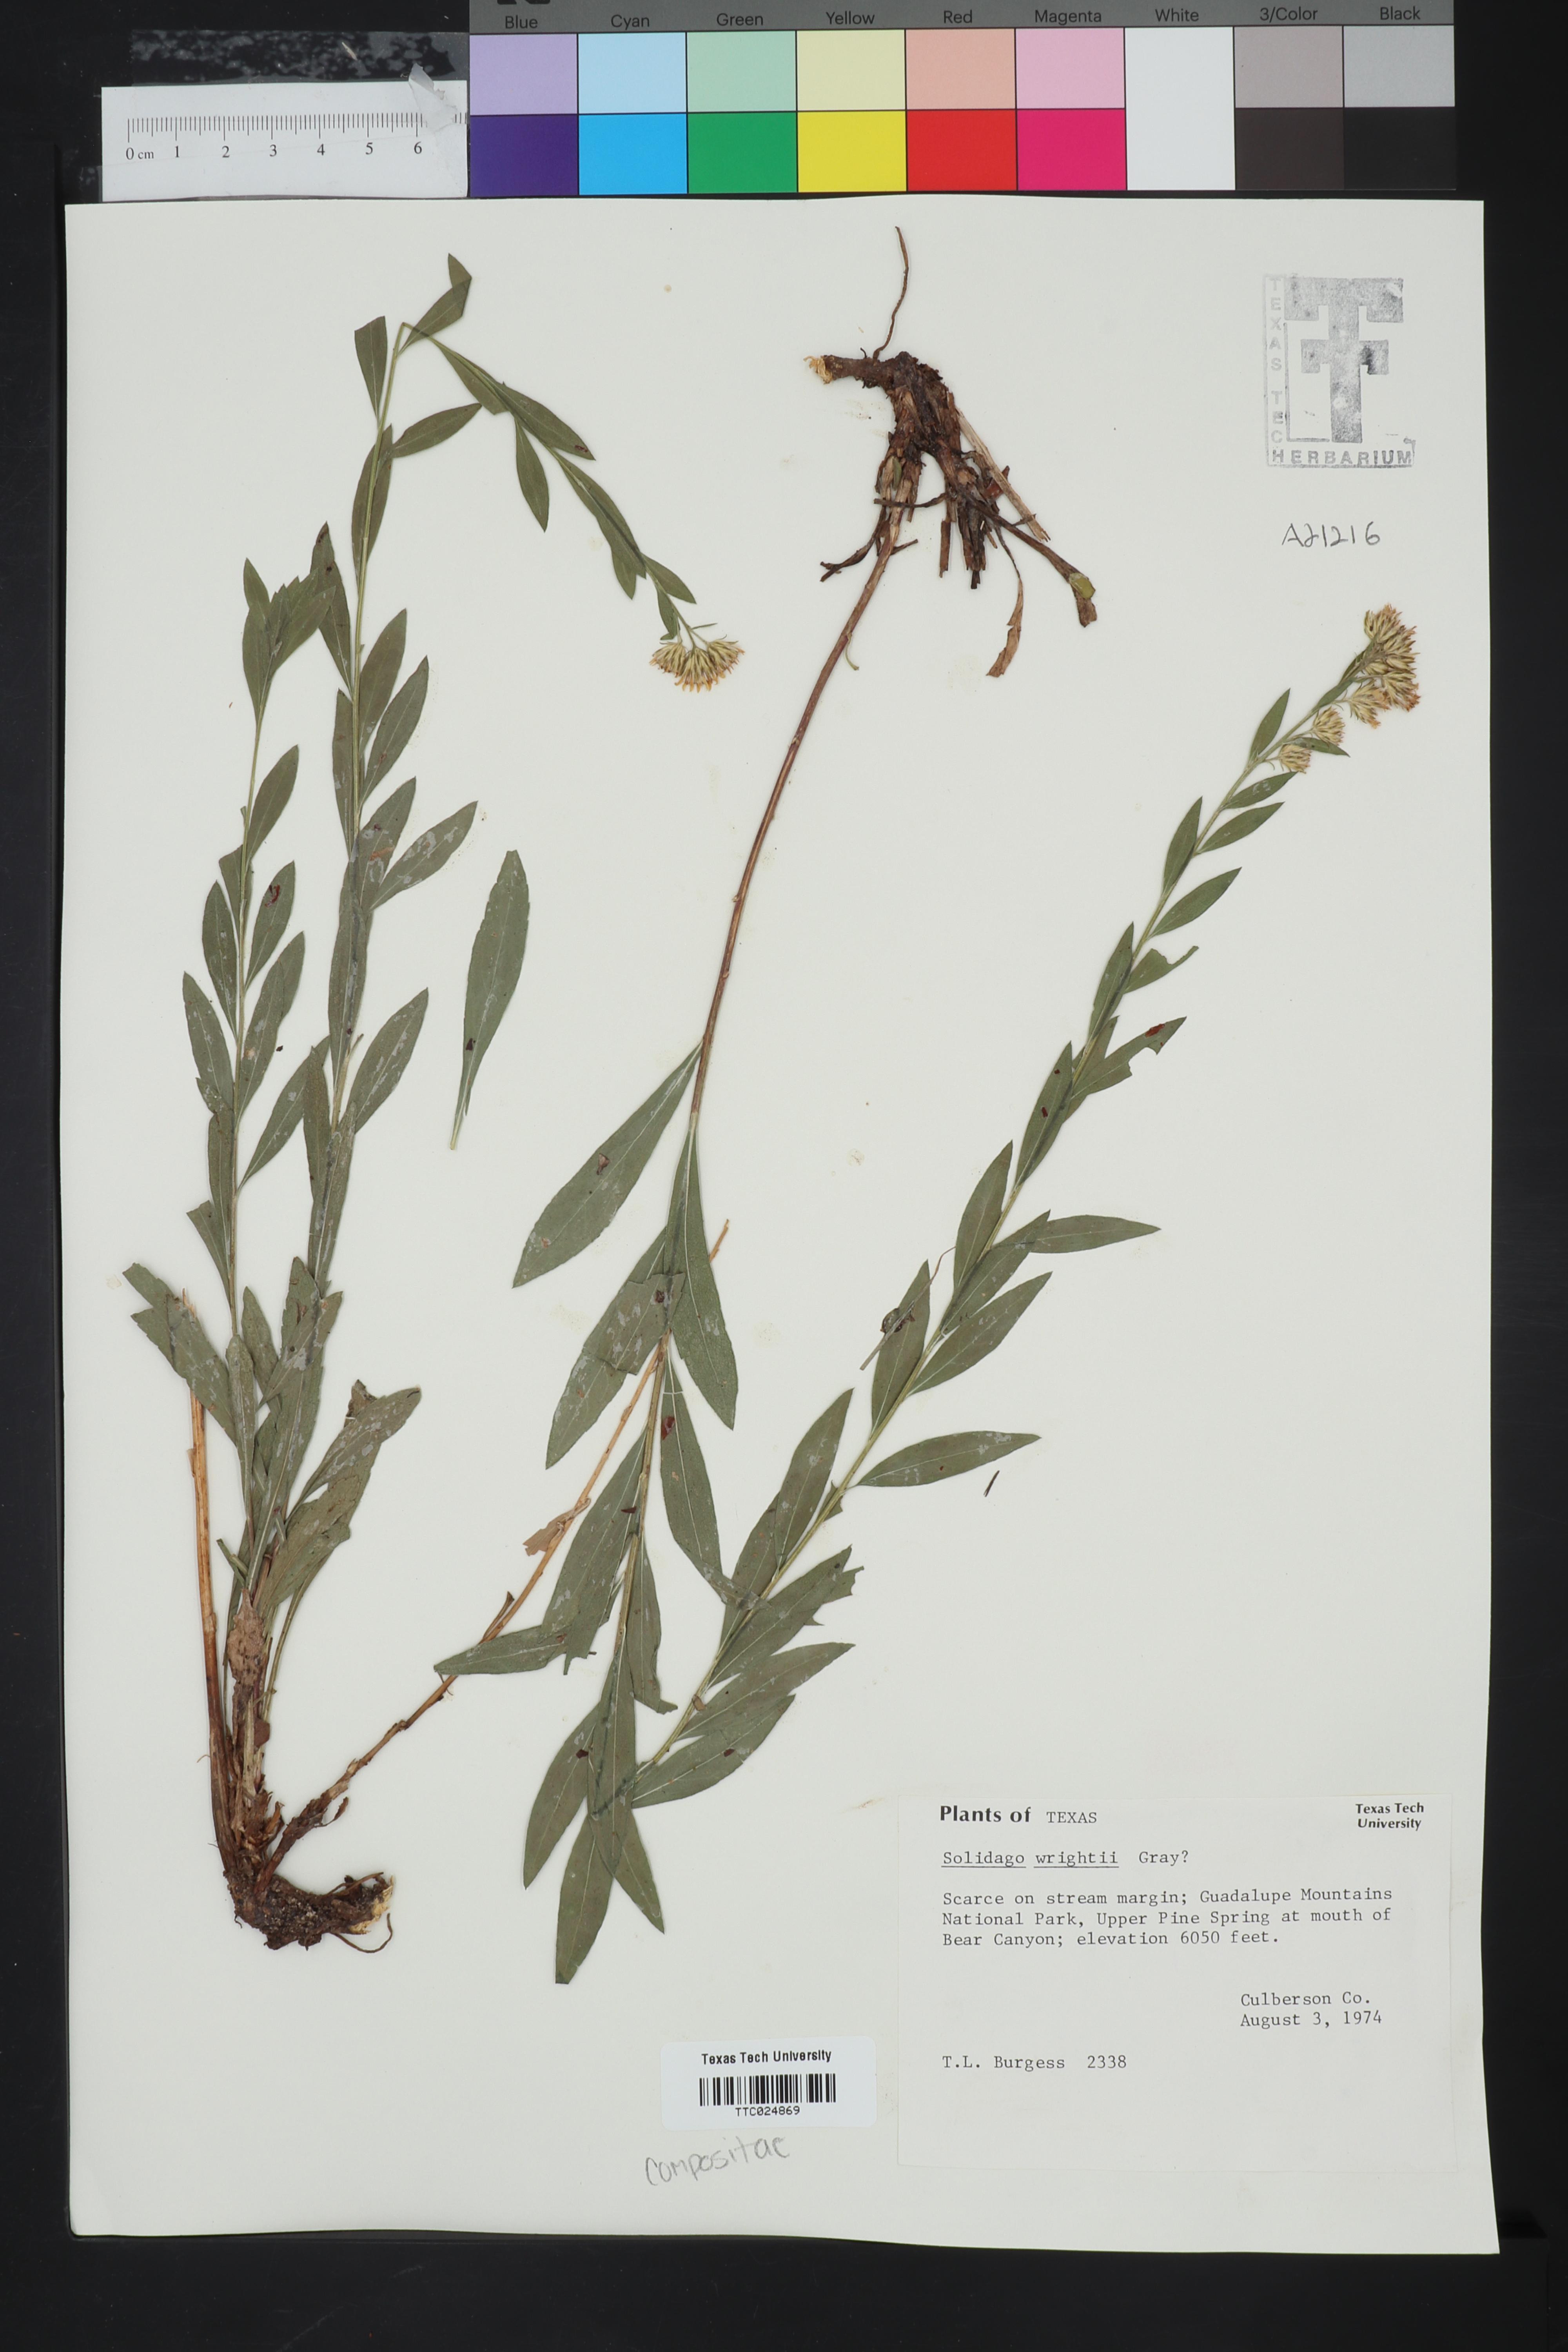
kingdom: Plantae
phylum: Tracheophyta
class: Magnoliopsida
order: Asterales
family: Asteraceae
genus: Solidago
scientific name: Solidago wrightii
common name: Wright's goldenrod
